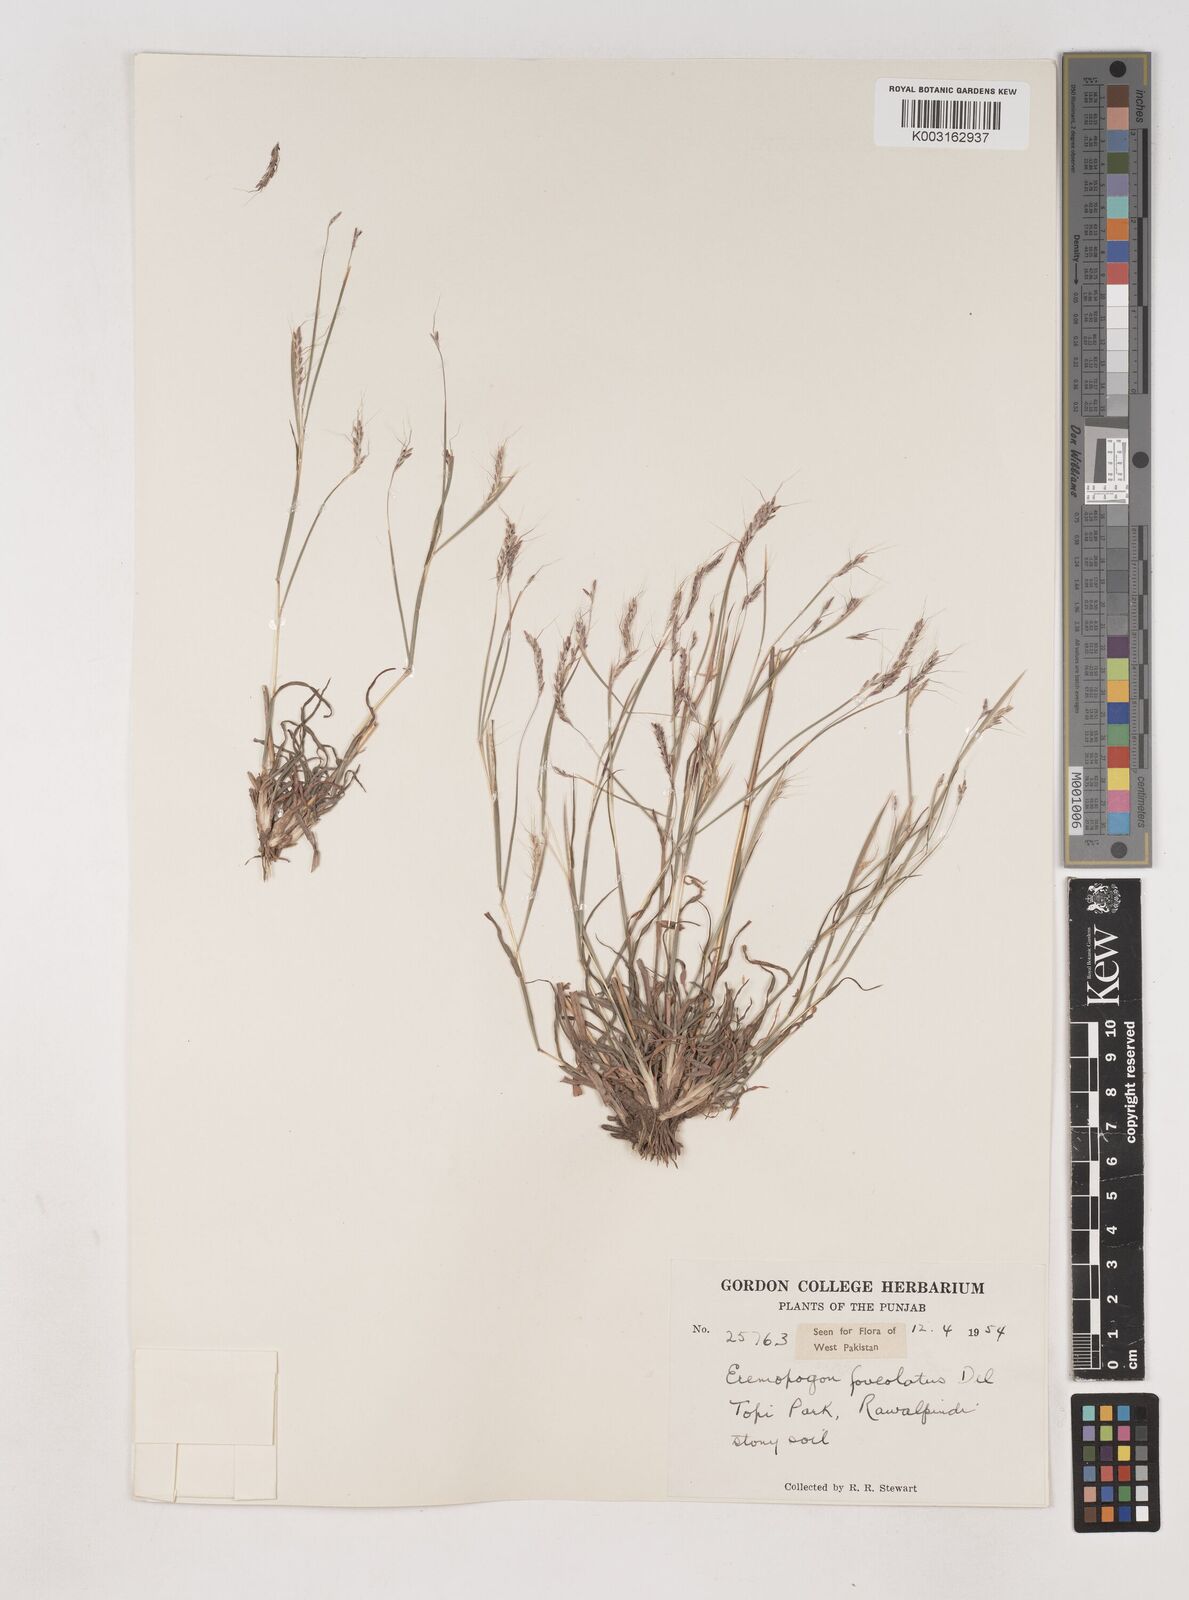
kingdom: Plantae
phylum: Tracheophyta
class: Liliopsida
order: Poales
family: Poaceae
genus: Dichanthium
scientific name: Dichanthium
